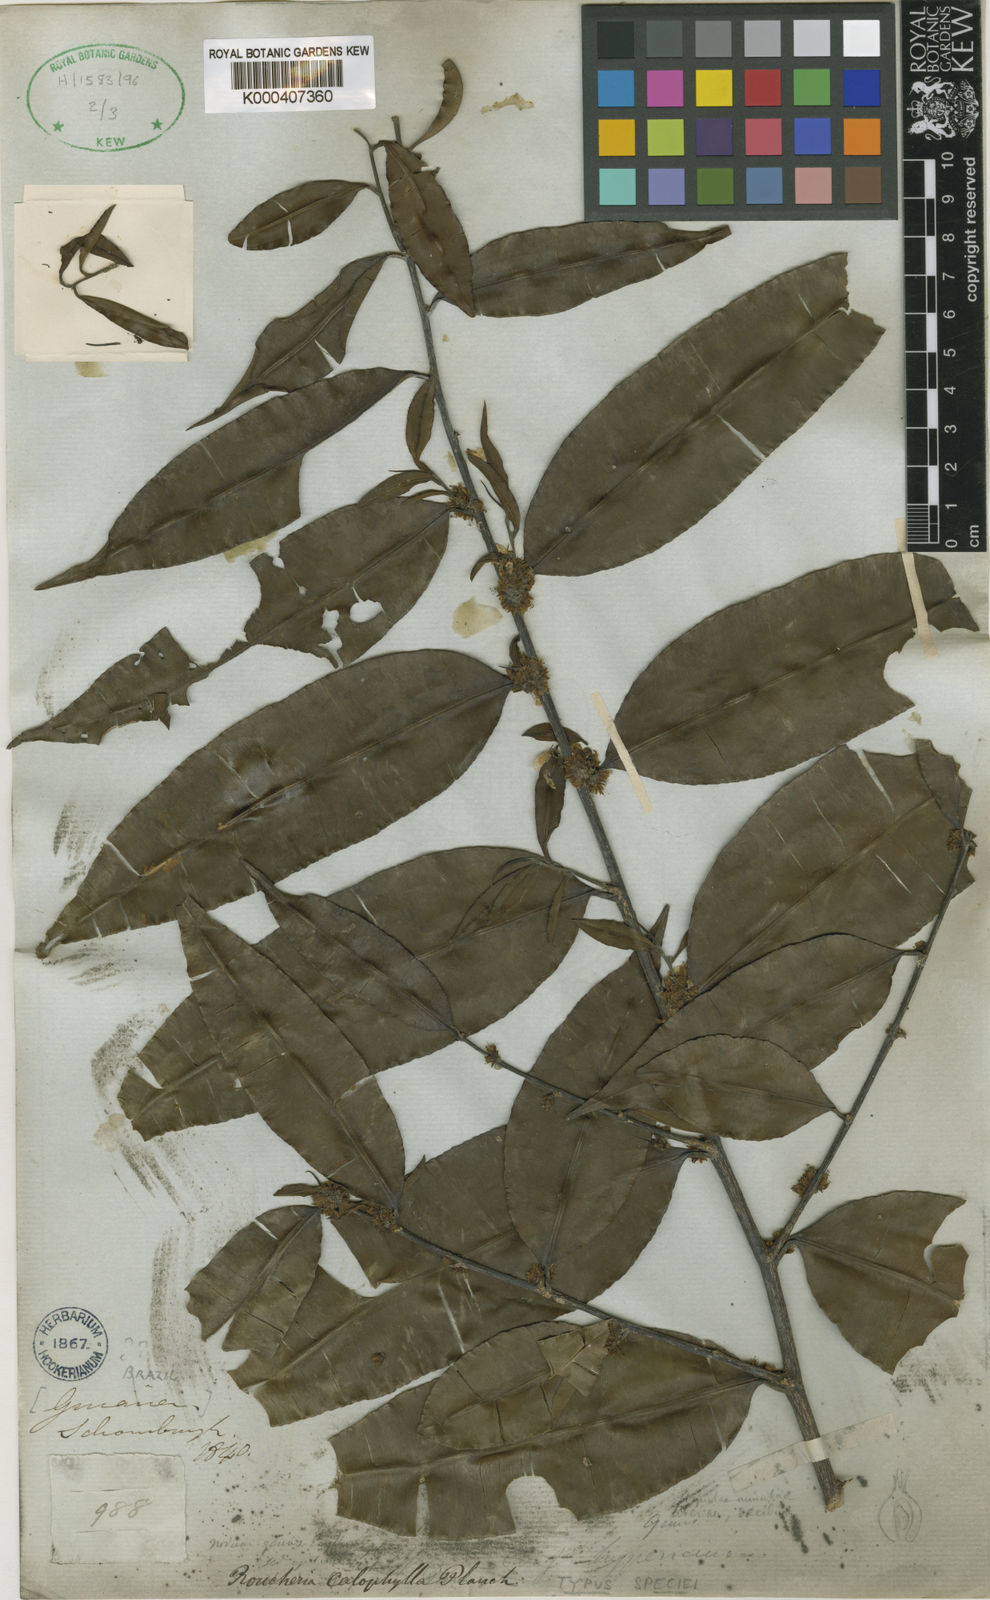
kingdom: Plantae
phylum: Tracheophyta
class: Magnoliopsida
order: Malpighiales
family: Linaceae
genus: Roucheria
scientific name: Roucheria calophylla
